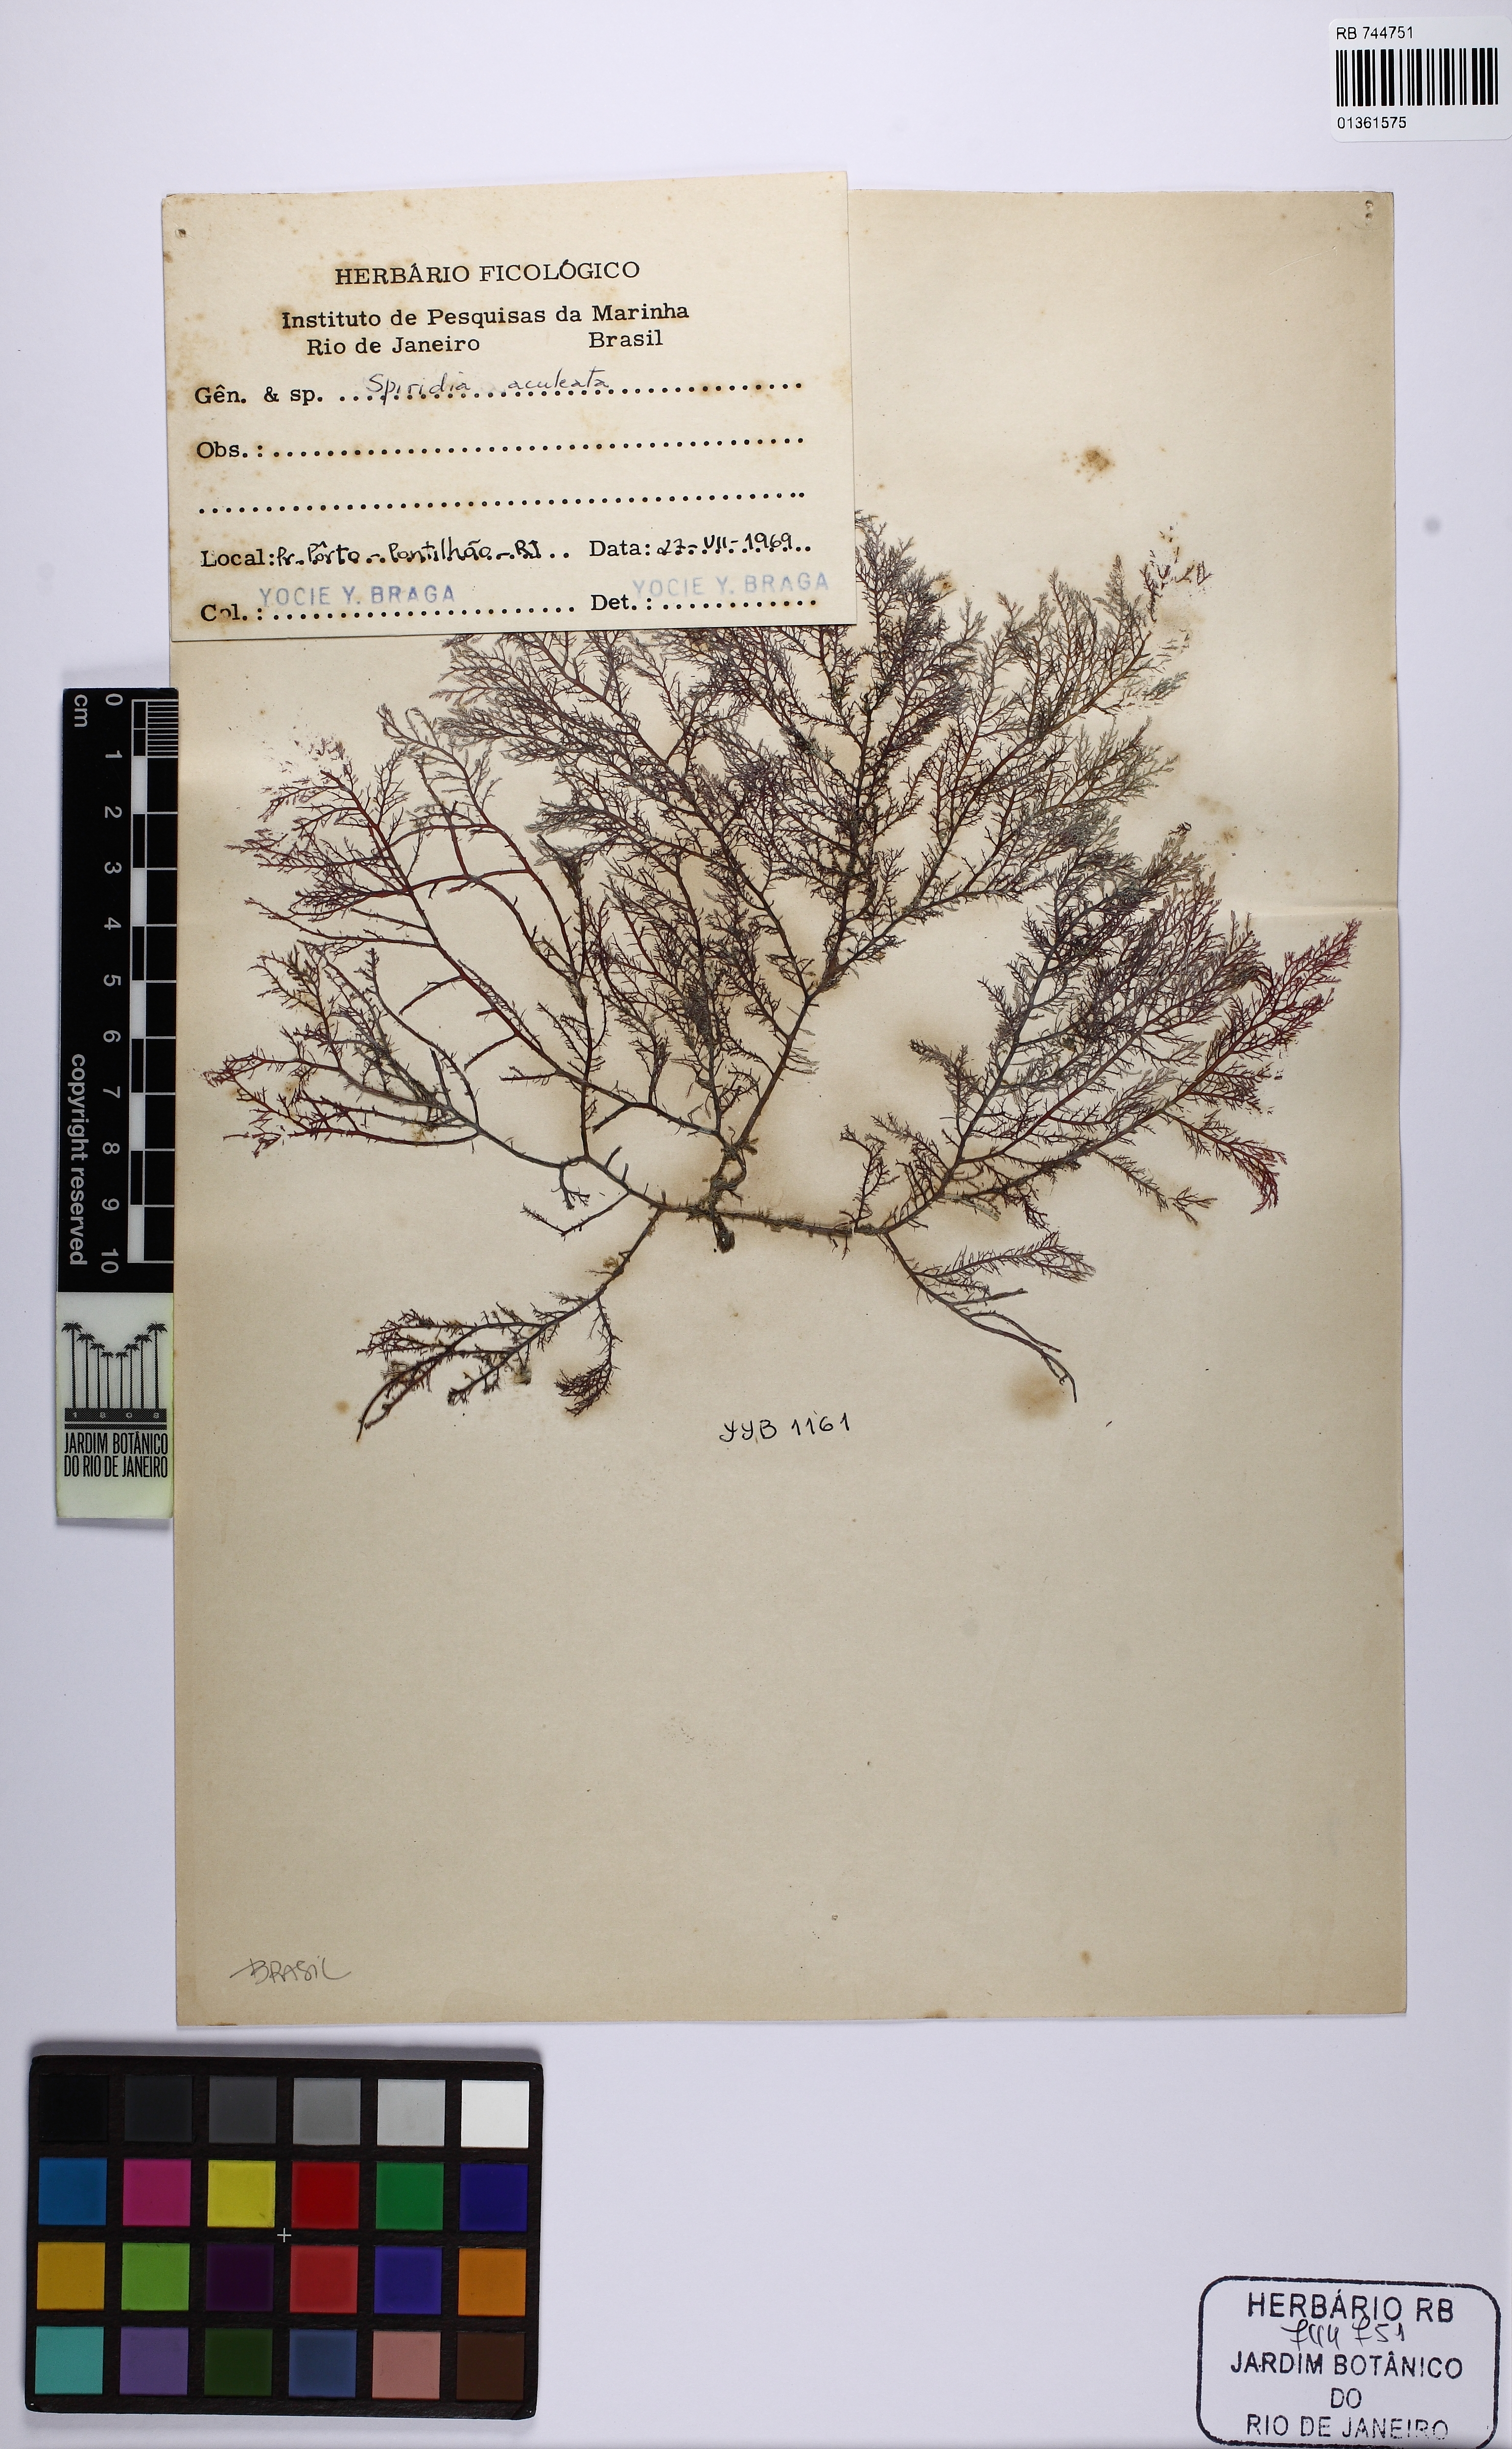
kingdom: Plantae
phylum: Rhodophyta
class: Florideophyceae
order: Ceramiales
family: Spyridiaceae
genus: Spyridia
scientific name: Spyridia hypnoides
